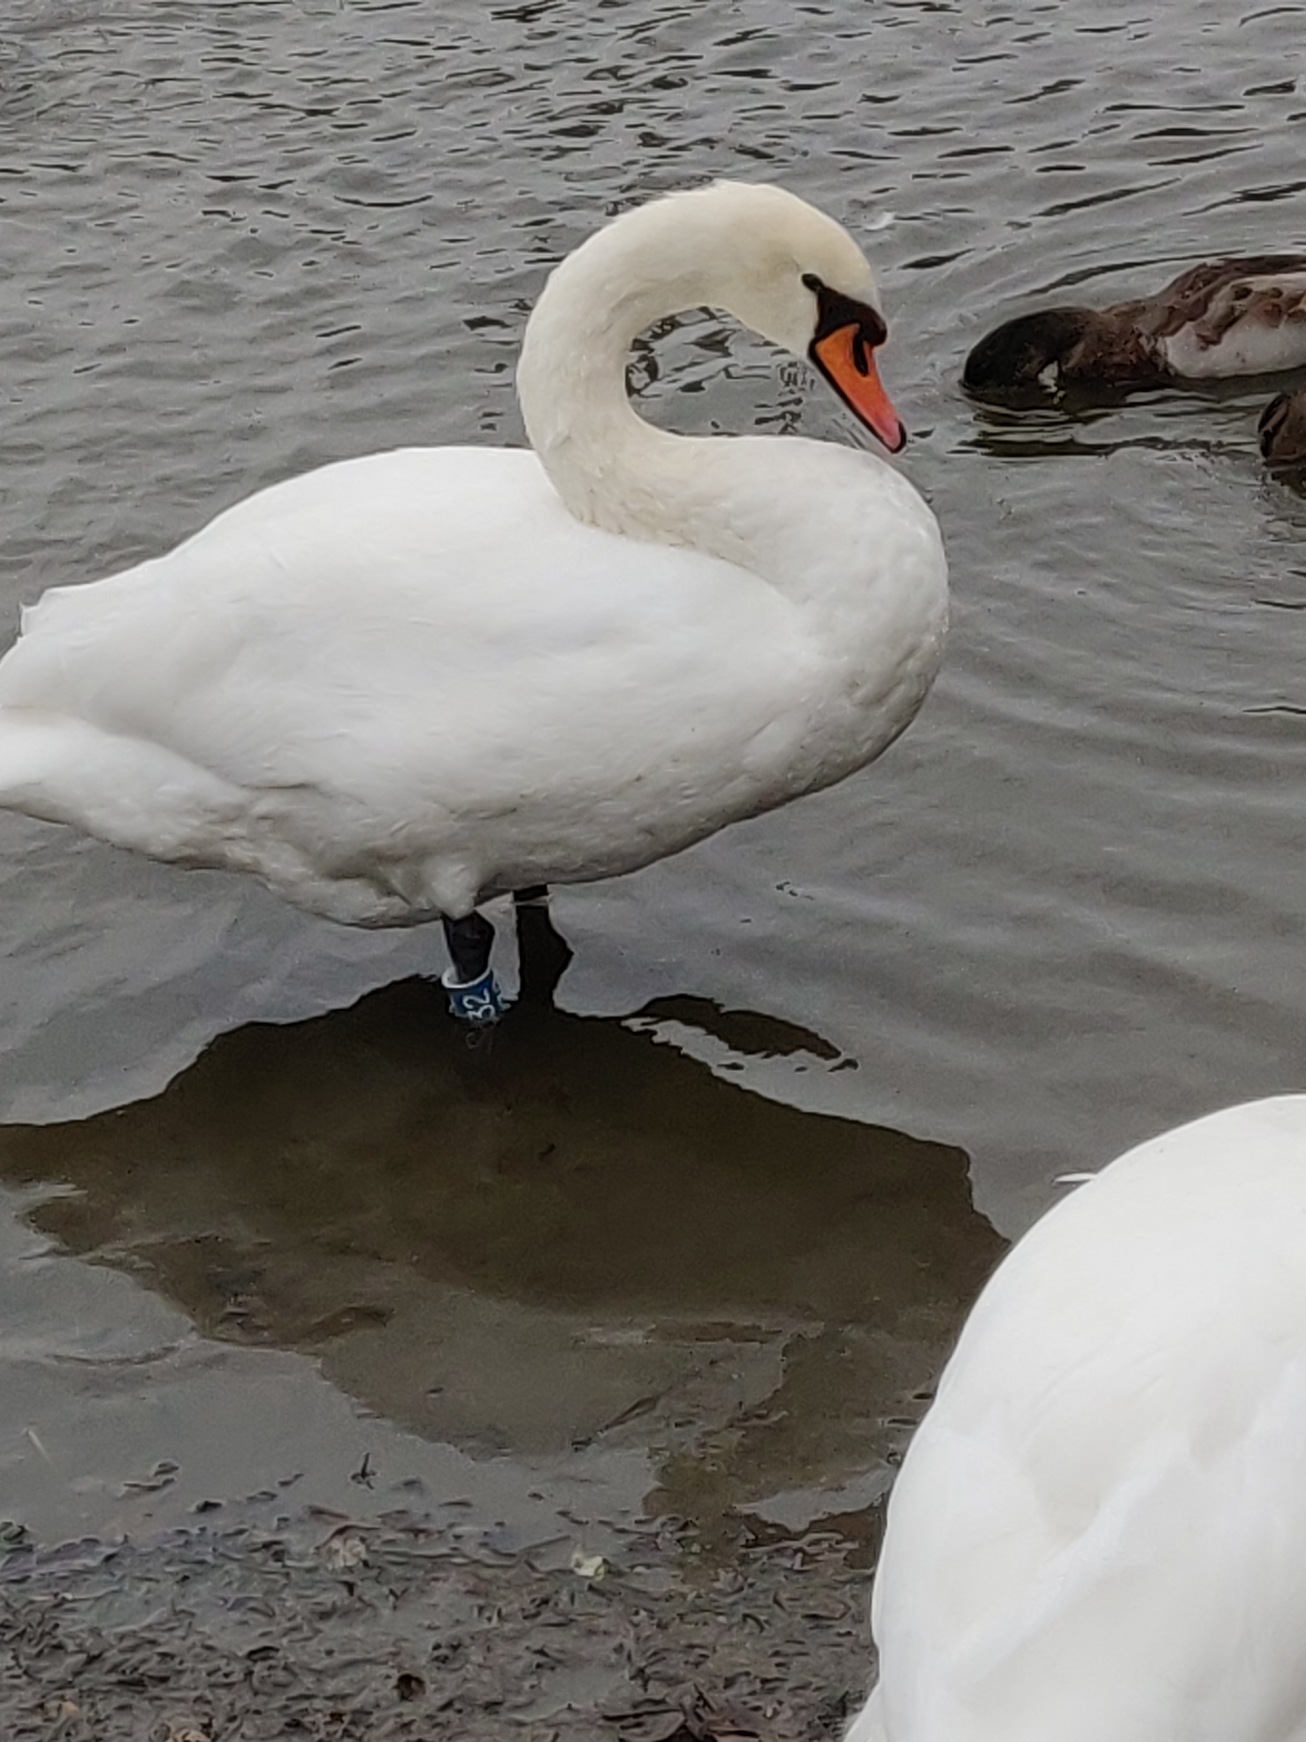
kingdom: Animalia
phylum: Chordata
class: Aves
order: Anseriformes
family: Anatidae
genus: Cygnus
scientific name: Cygnus olor
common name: Knopsvane
